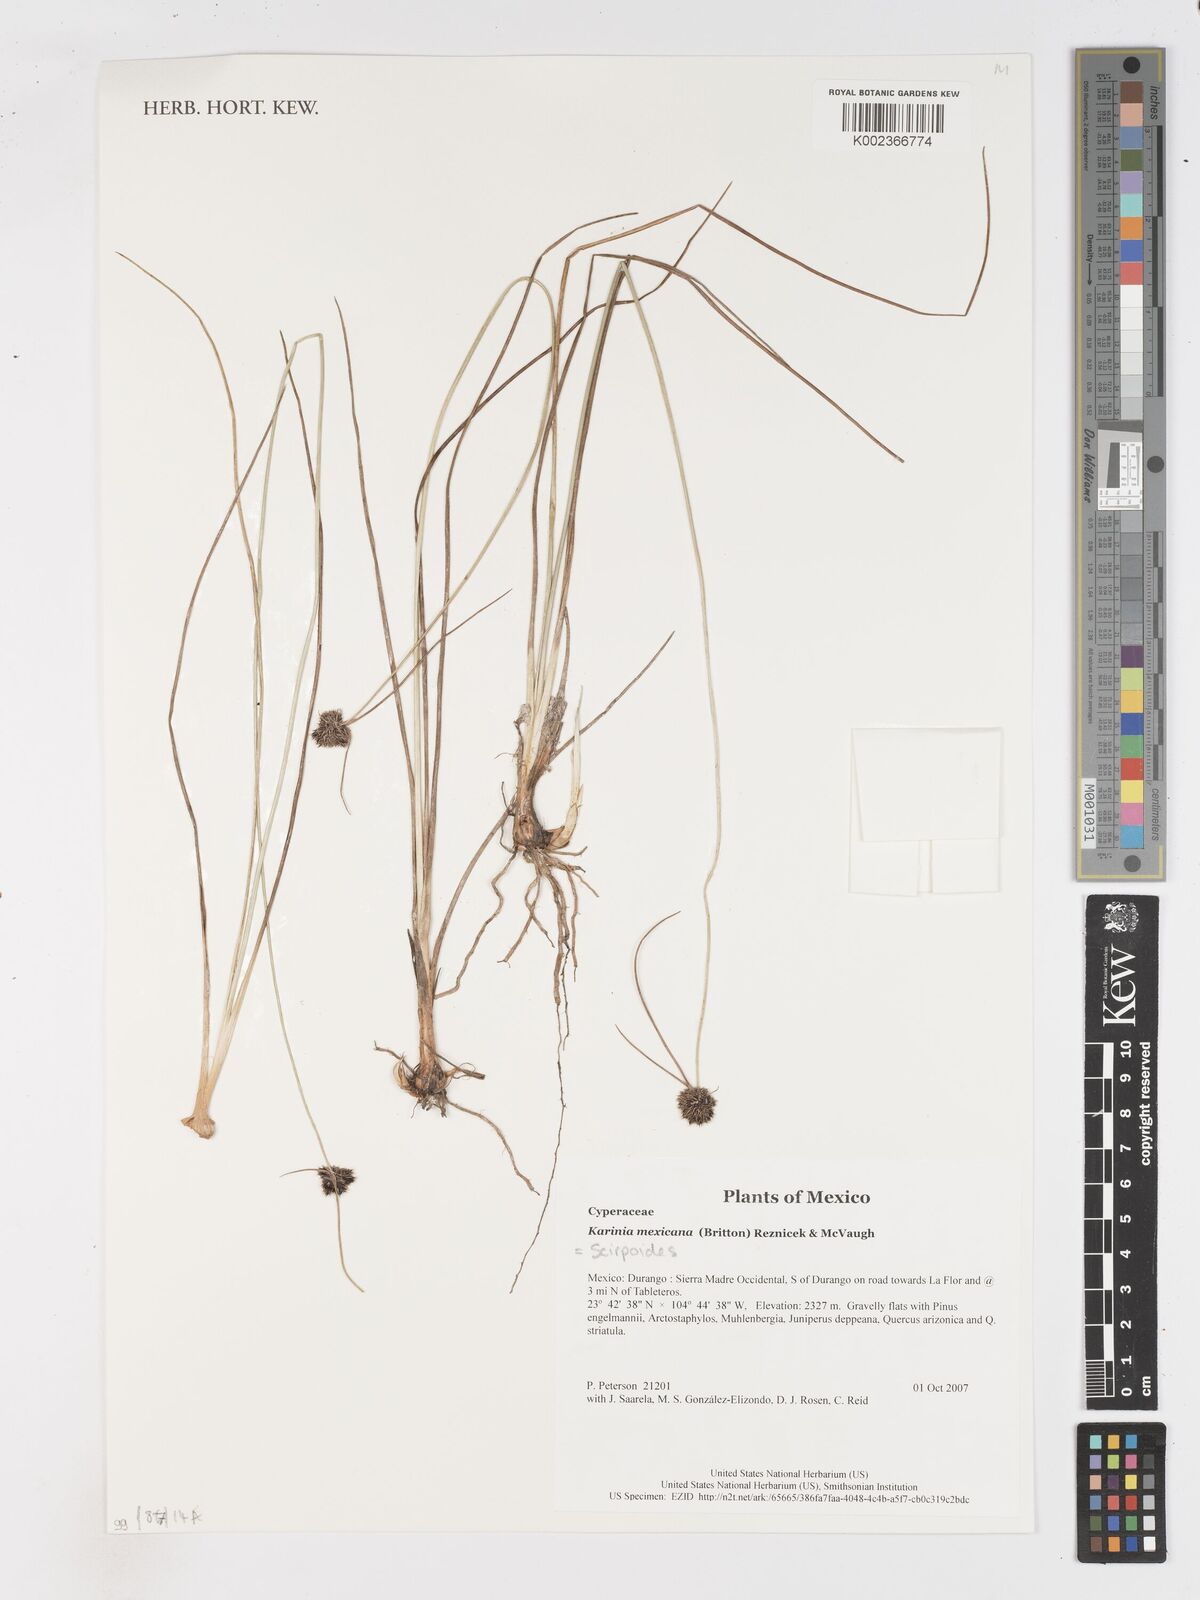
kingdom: Plantae
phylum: Tracheophyta
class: Liliopsida
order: Poales
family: Cyperaceae
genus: Scirpoides
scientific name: Scirpoides mexicana
